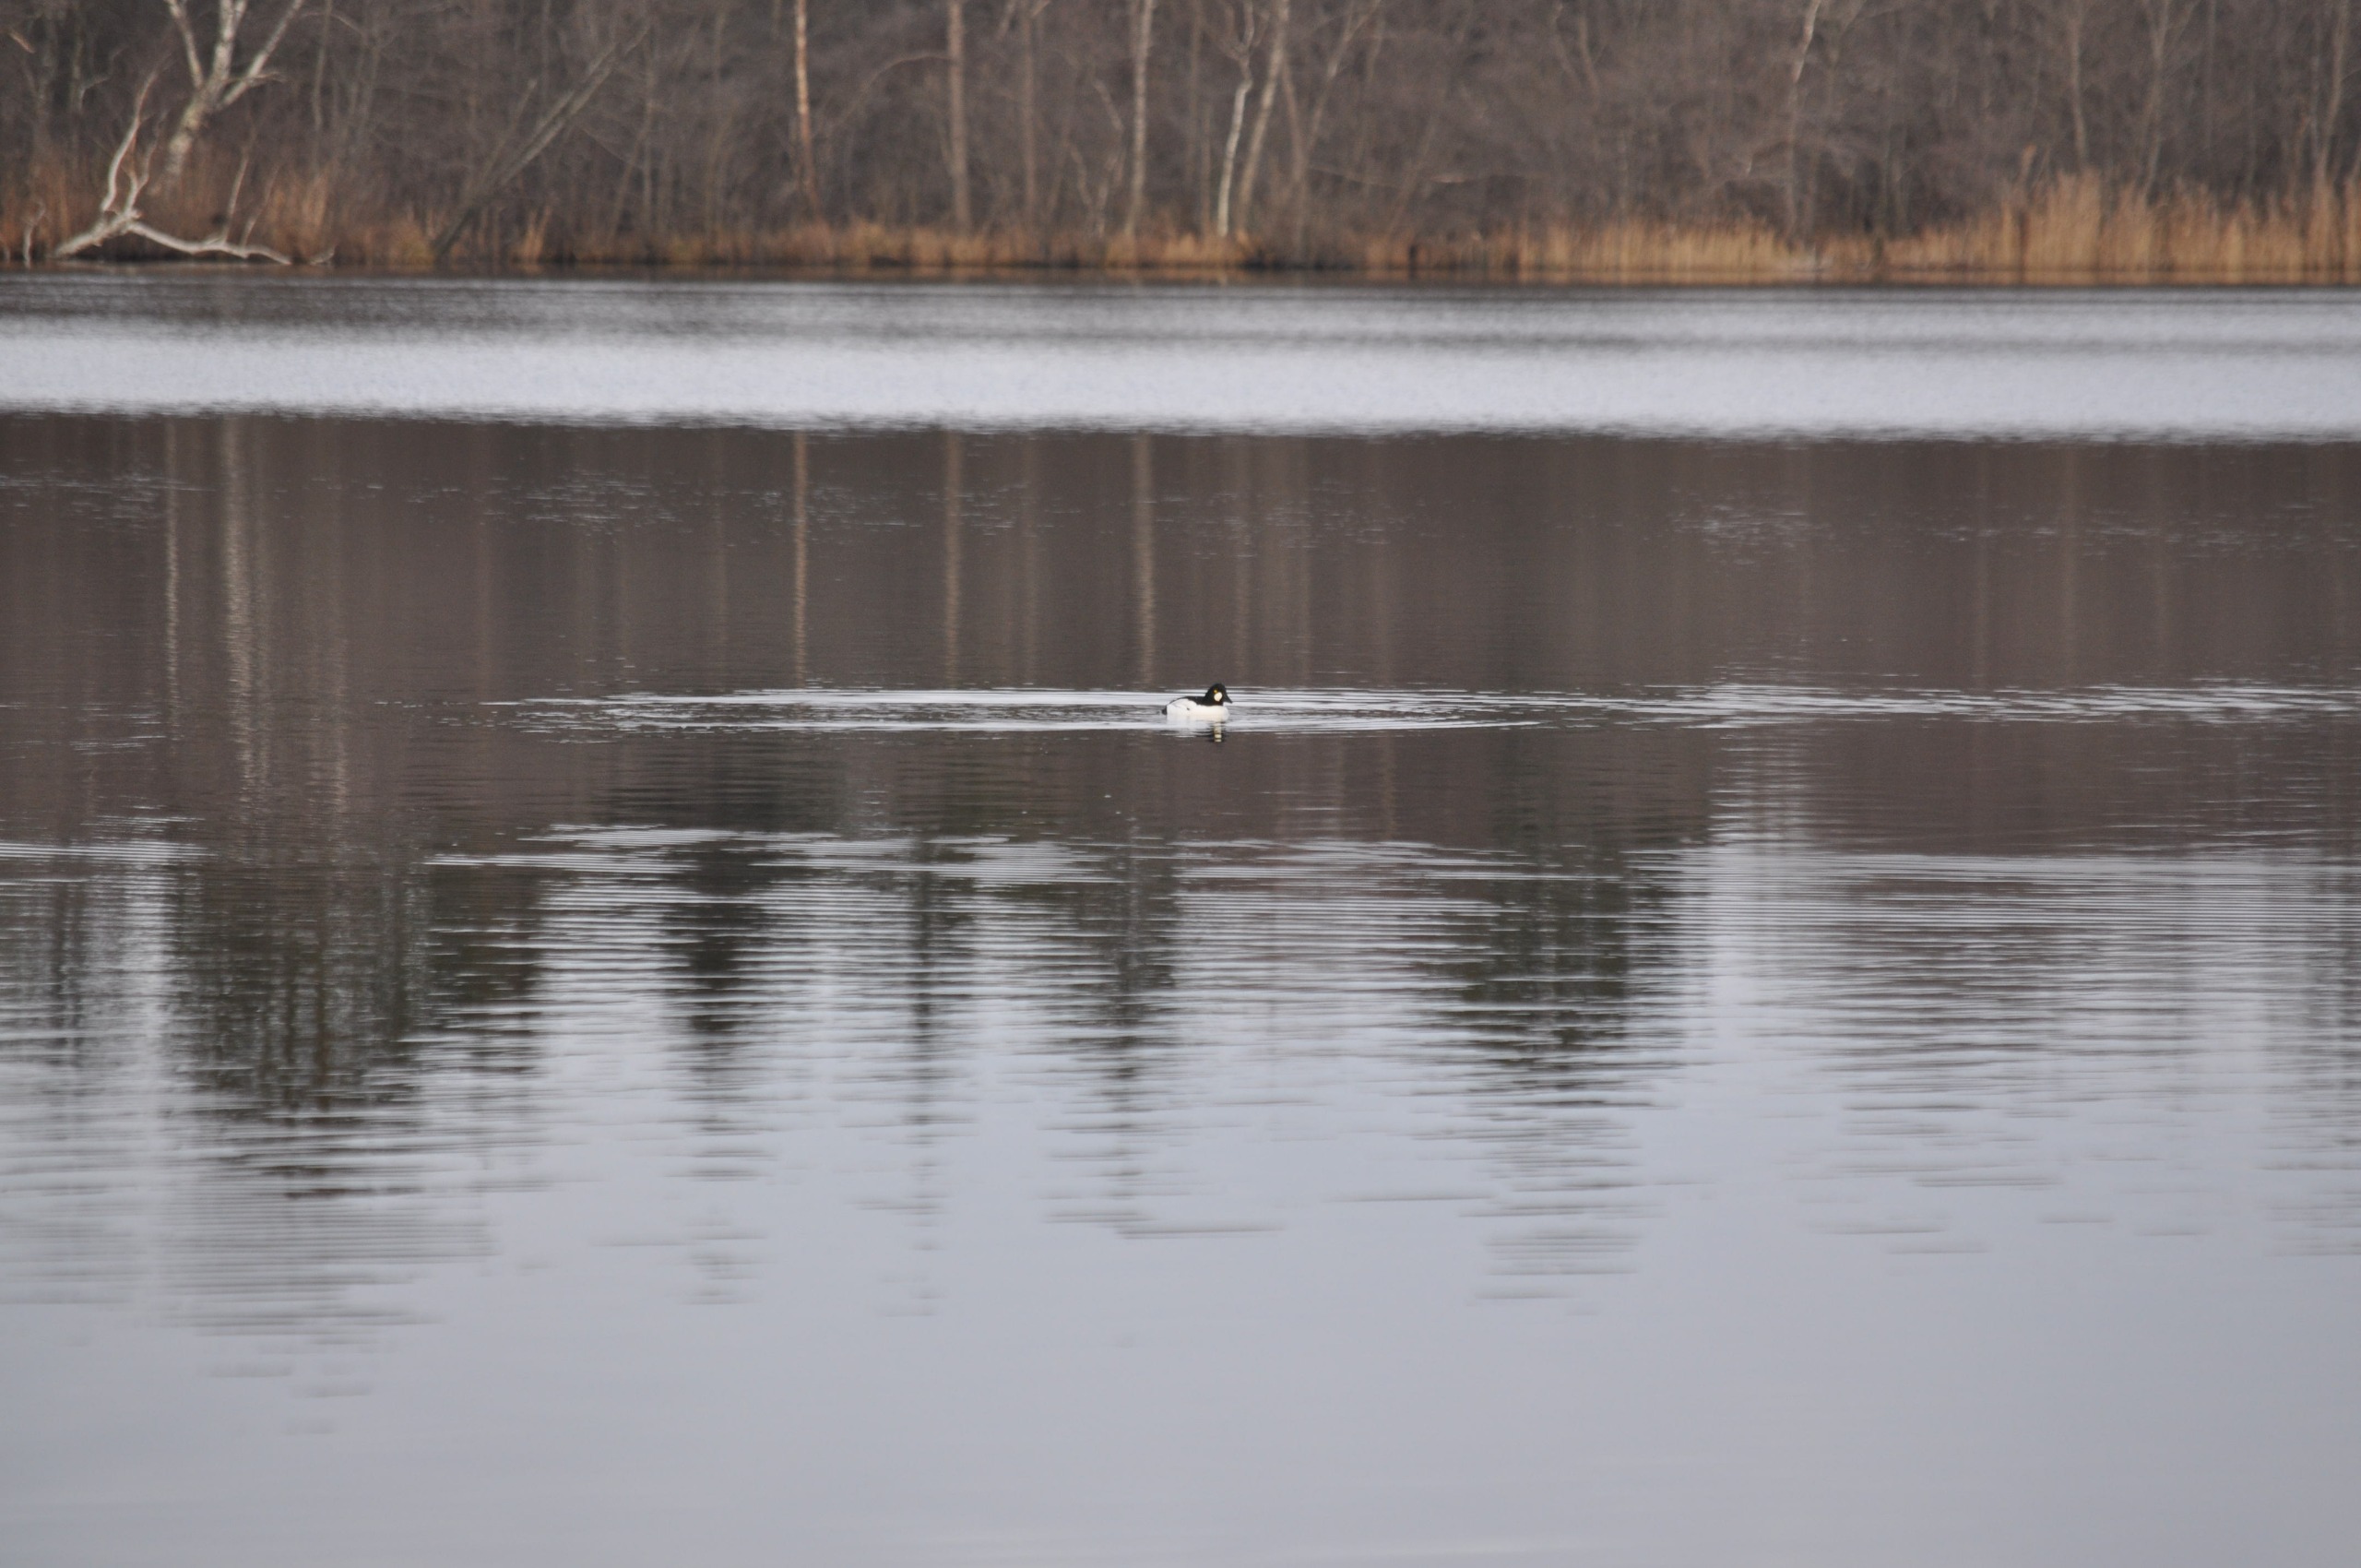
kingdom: Animalia
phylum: Chordata
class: Aves
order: Anseriformes
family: Anatidae
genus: Bucephala
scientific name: Bucephala clangula
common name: Hvinand
